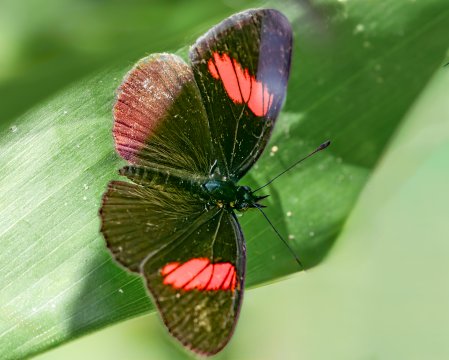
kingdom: Animalia
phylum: Arthropoda
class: Insecta
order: Lepidoptera
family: Nymphalidae
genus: Castilia
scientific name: Castilia castilla
